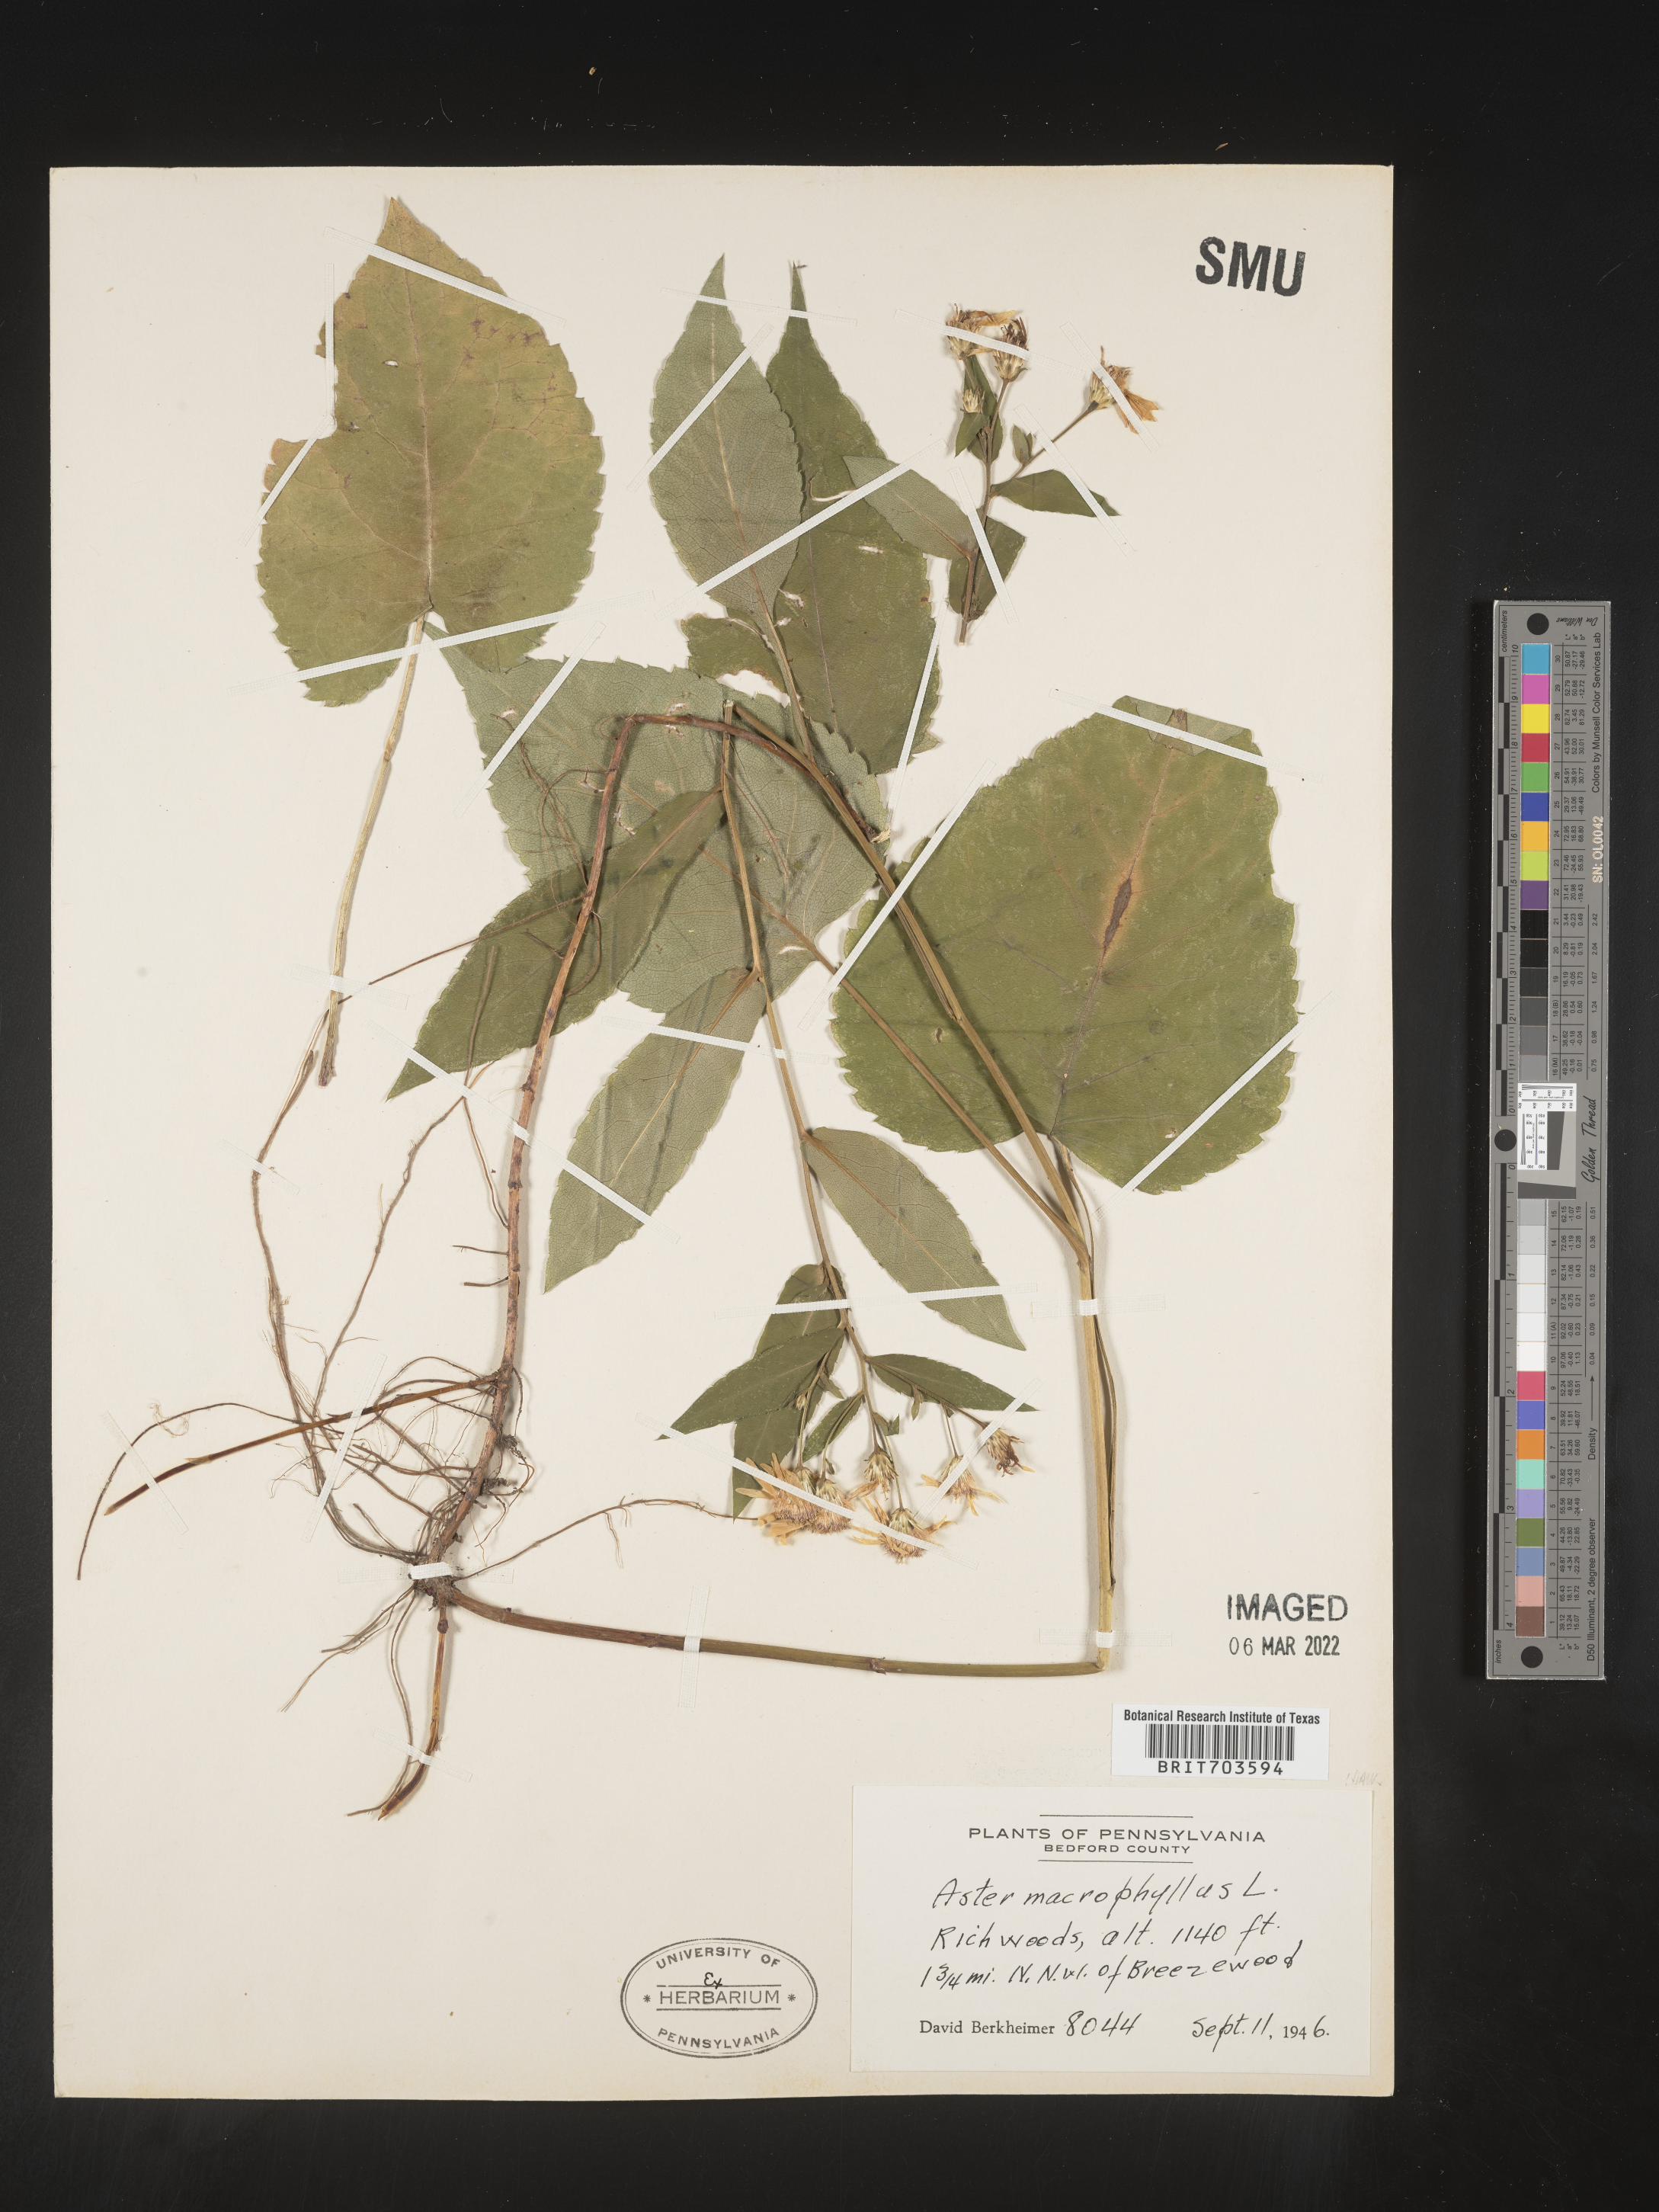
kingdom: Plantae
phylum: Tracheophyta
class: Magnoliopsida
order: Asterales
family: Asteraceae
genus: Eurybia
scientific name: Eurybia macrophylla
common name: Big-leaved aster
